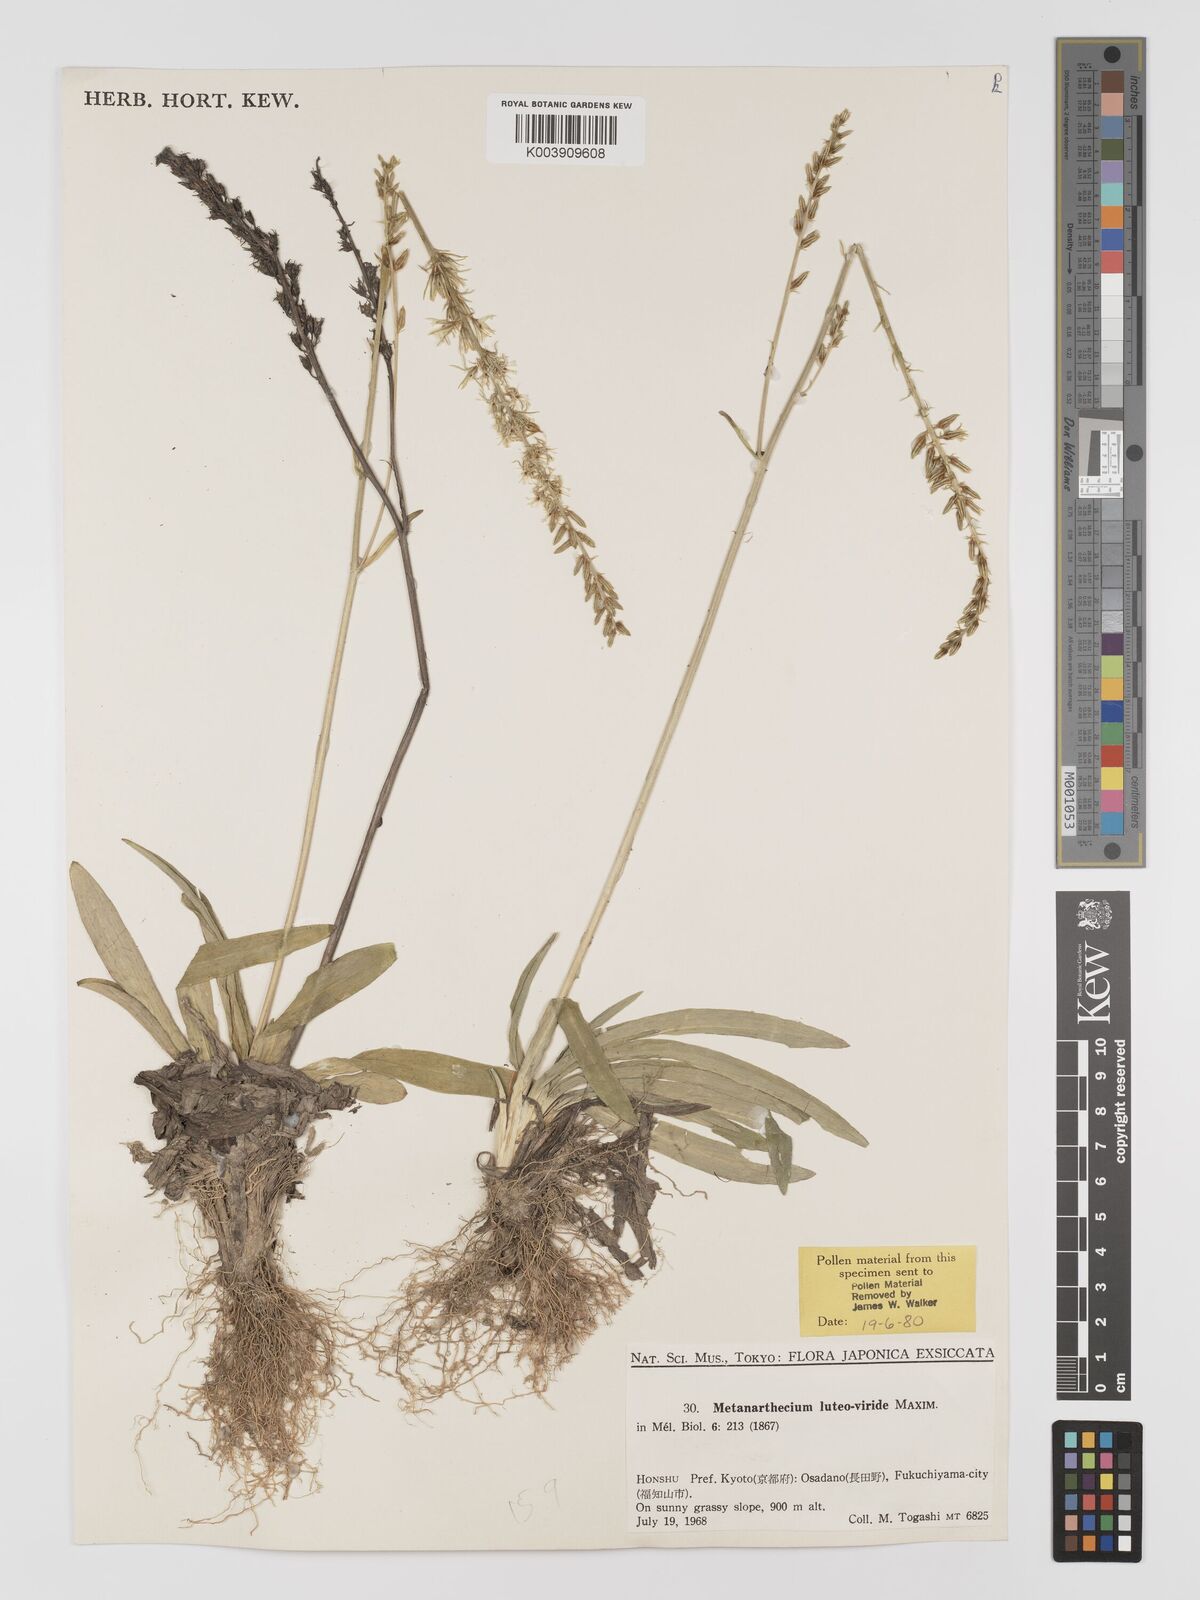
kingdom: Plantae
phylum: Tracheophyta
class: Liliopsida
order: Dioscoreales
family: Nartheciaceae
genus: Metanarthecium
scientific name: Metanarthecium luteoviride
